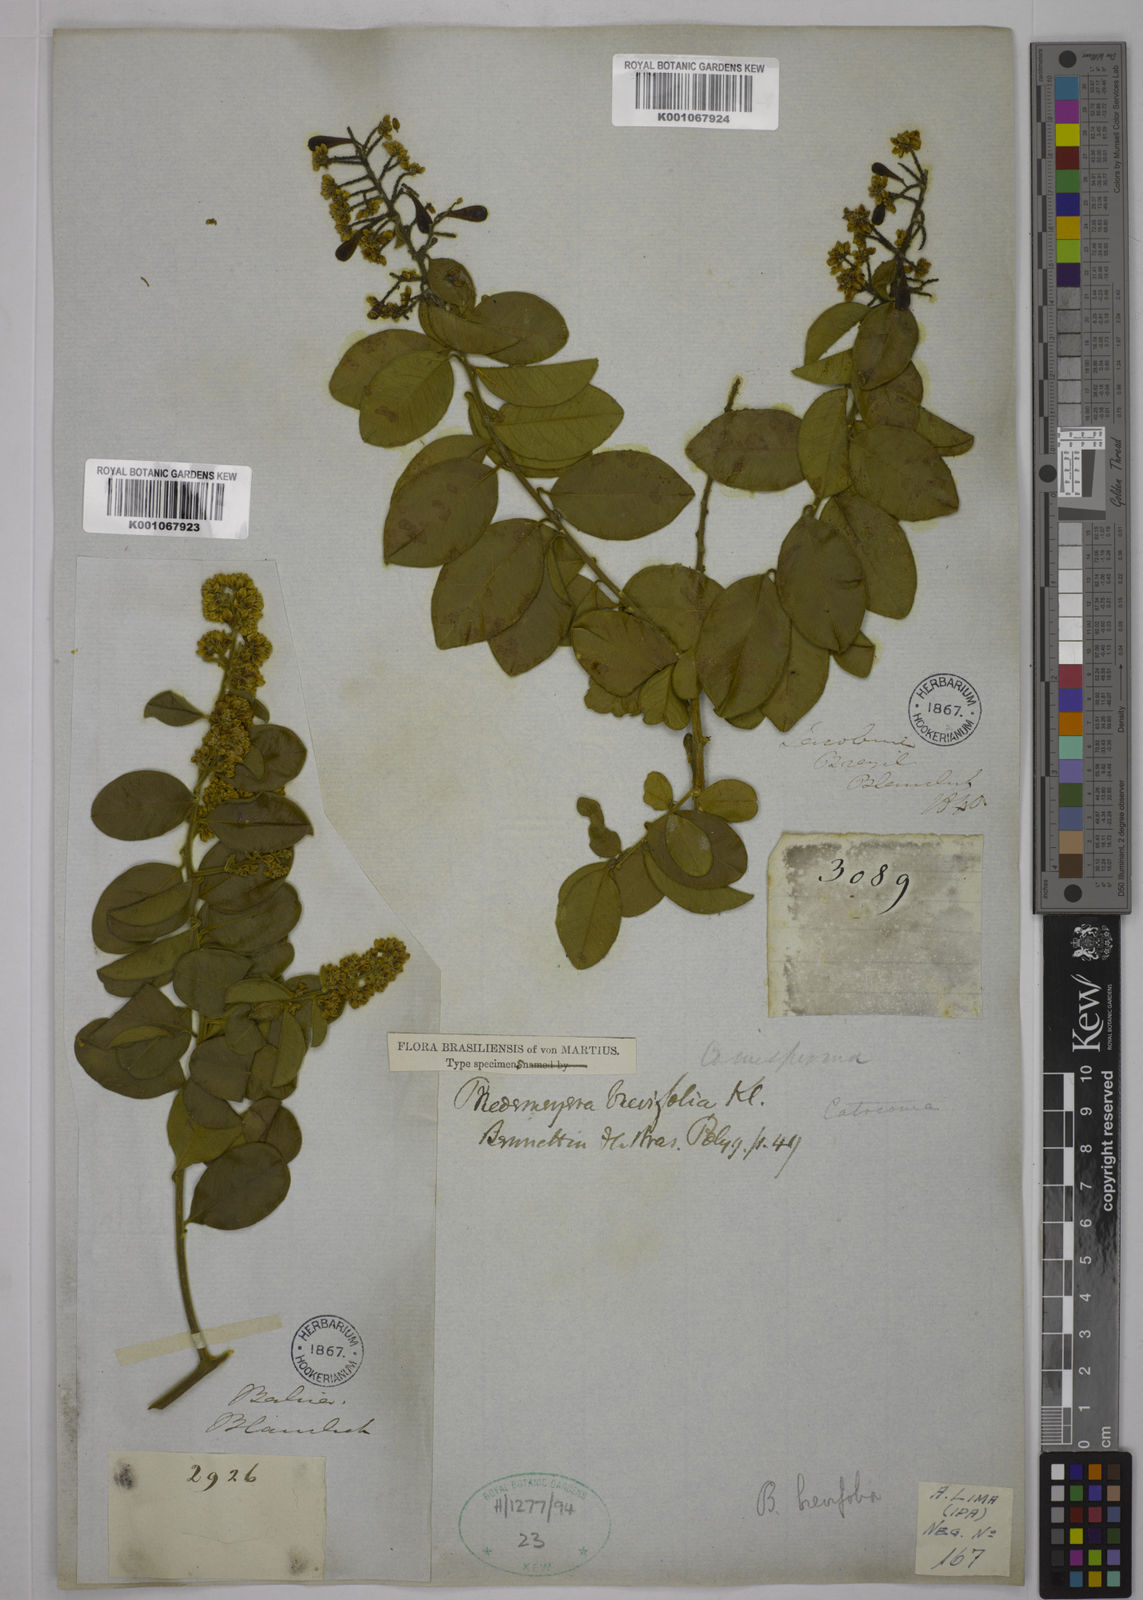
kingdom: Plantae
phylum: Tracheophyta
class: Magnoliopsida
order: Fabales
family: Polygalaceae
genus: Bredemeyera
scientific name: Bredemeyera brevifolia
